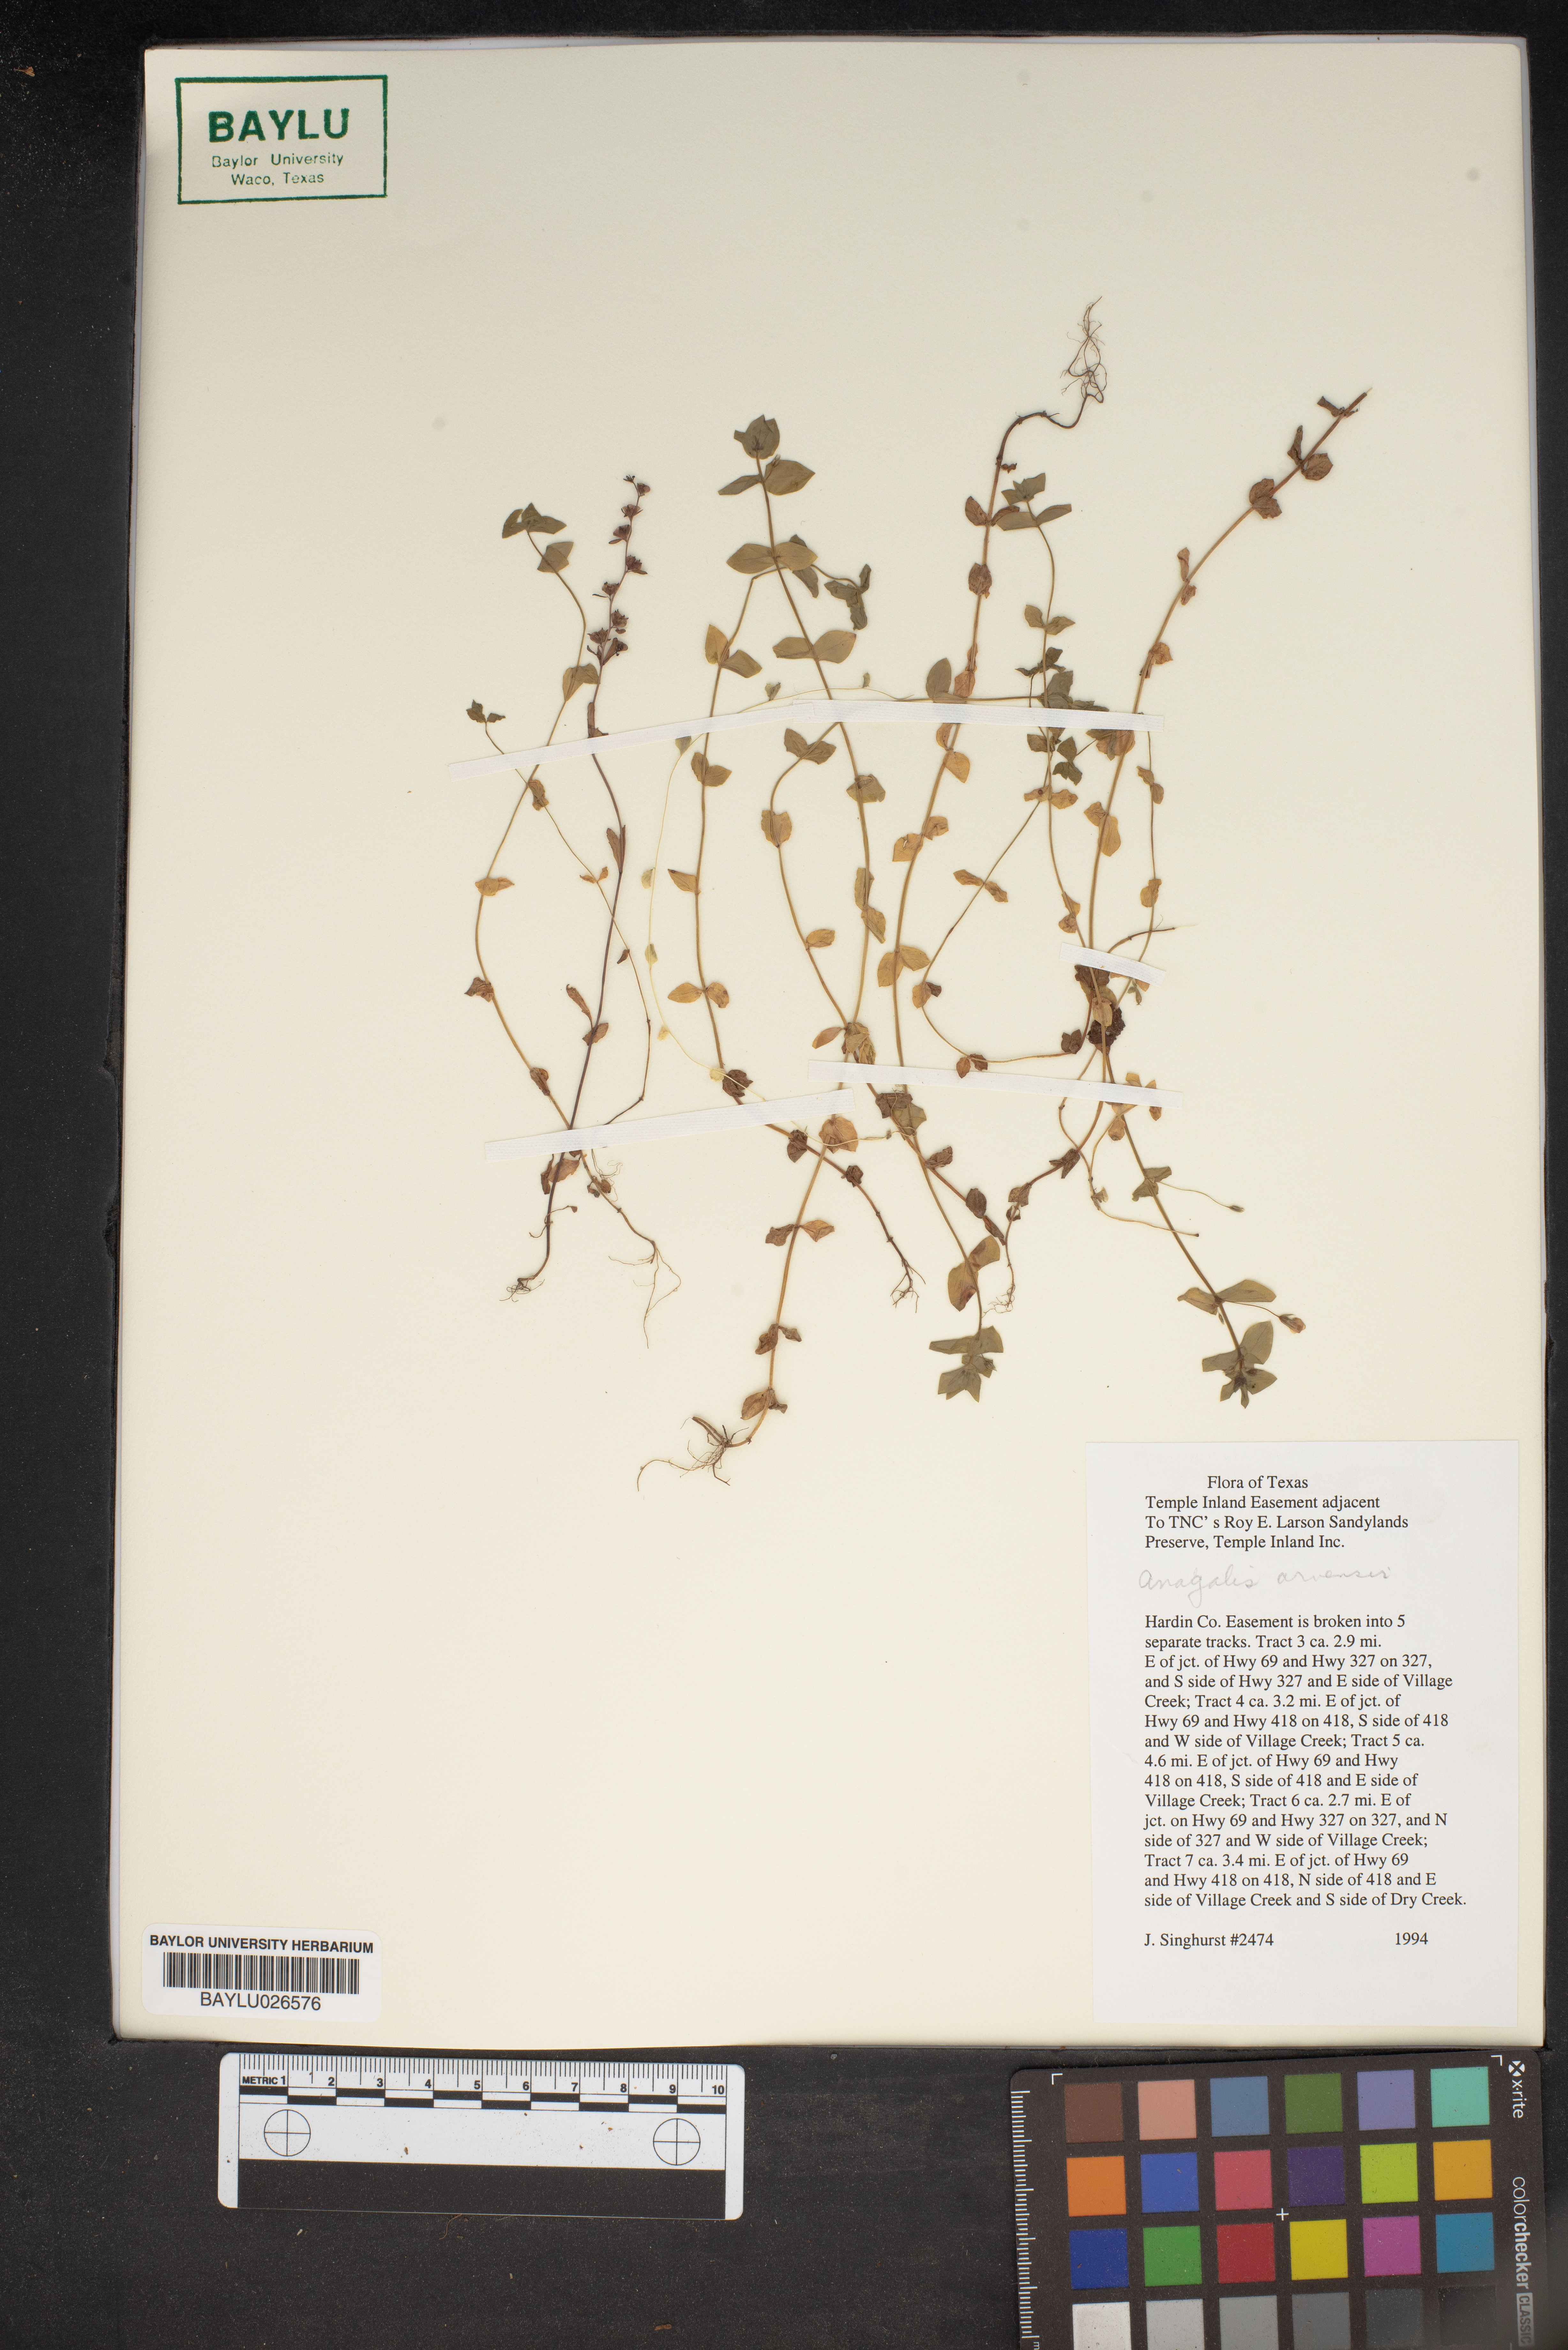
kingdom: Plantae
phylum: Tracheophyta
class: Magnoliopsida
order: Ericales
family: Primulaceae
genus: Lysimachia
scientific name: Lysimachia arvensis
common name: Scarlet pimpernel
